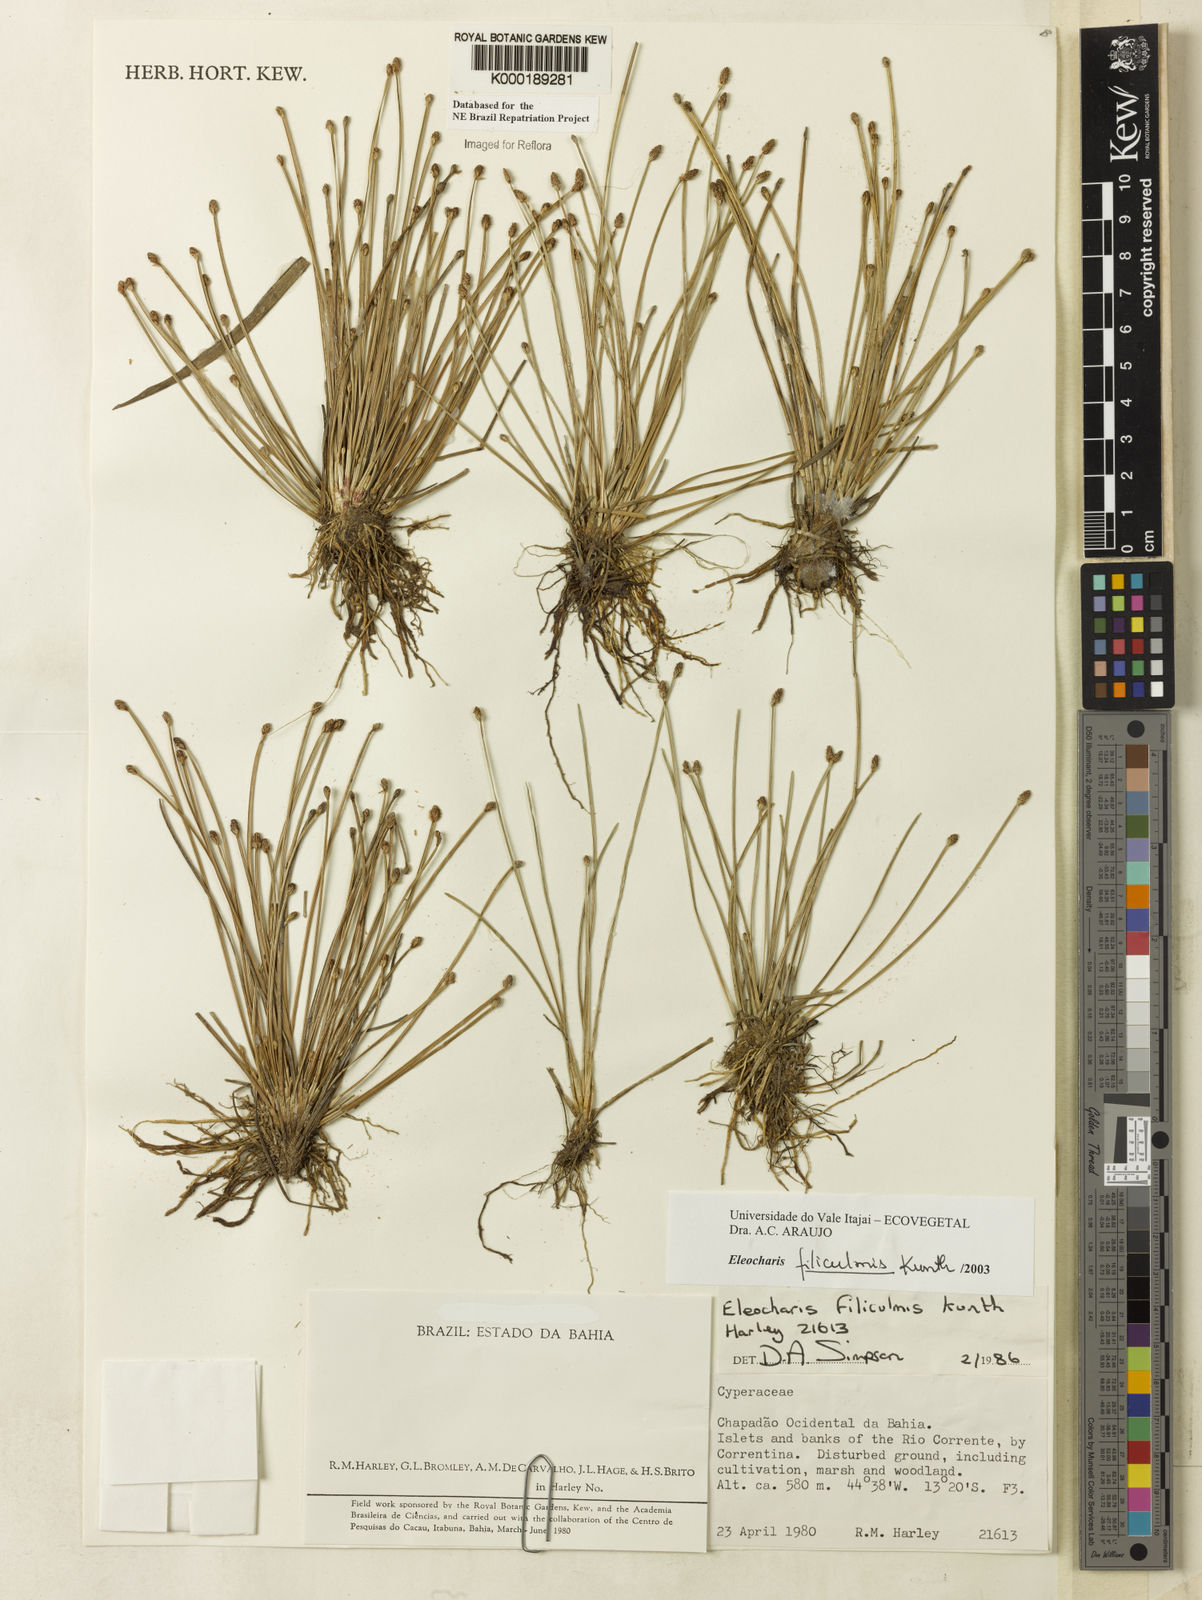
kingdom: Plantae
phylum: Tracheophyta
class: Liliopsida
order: Poales
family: Cyperaceae
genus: Eleocharis
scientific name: Eleocharis filiculmis
